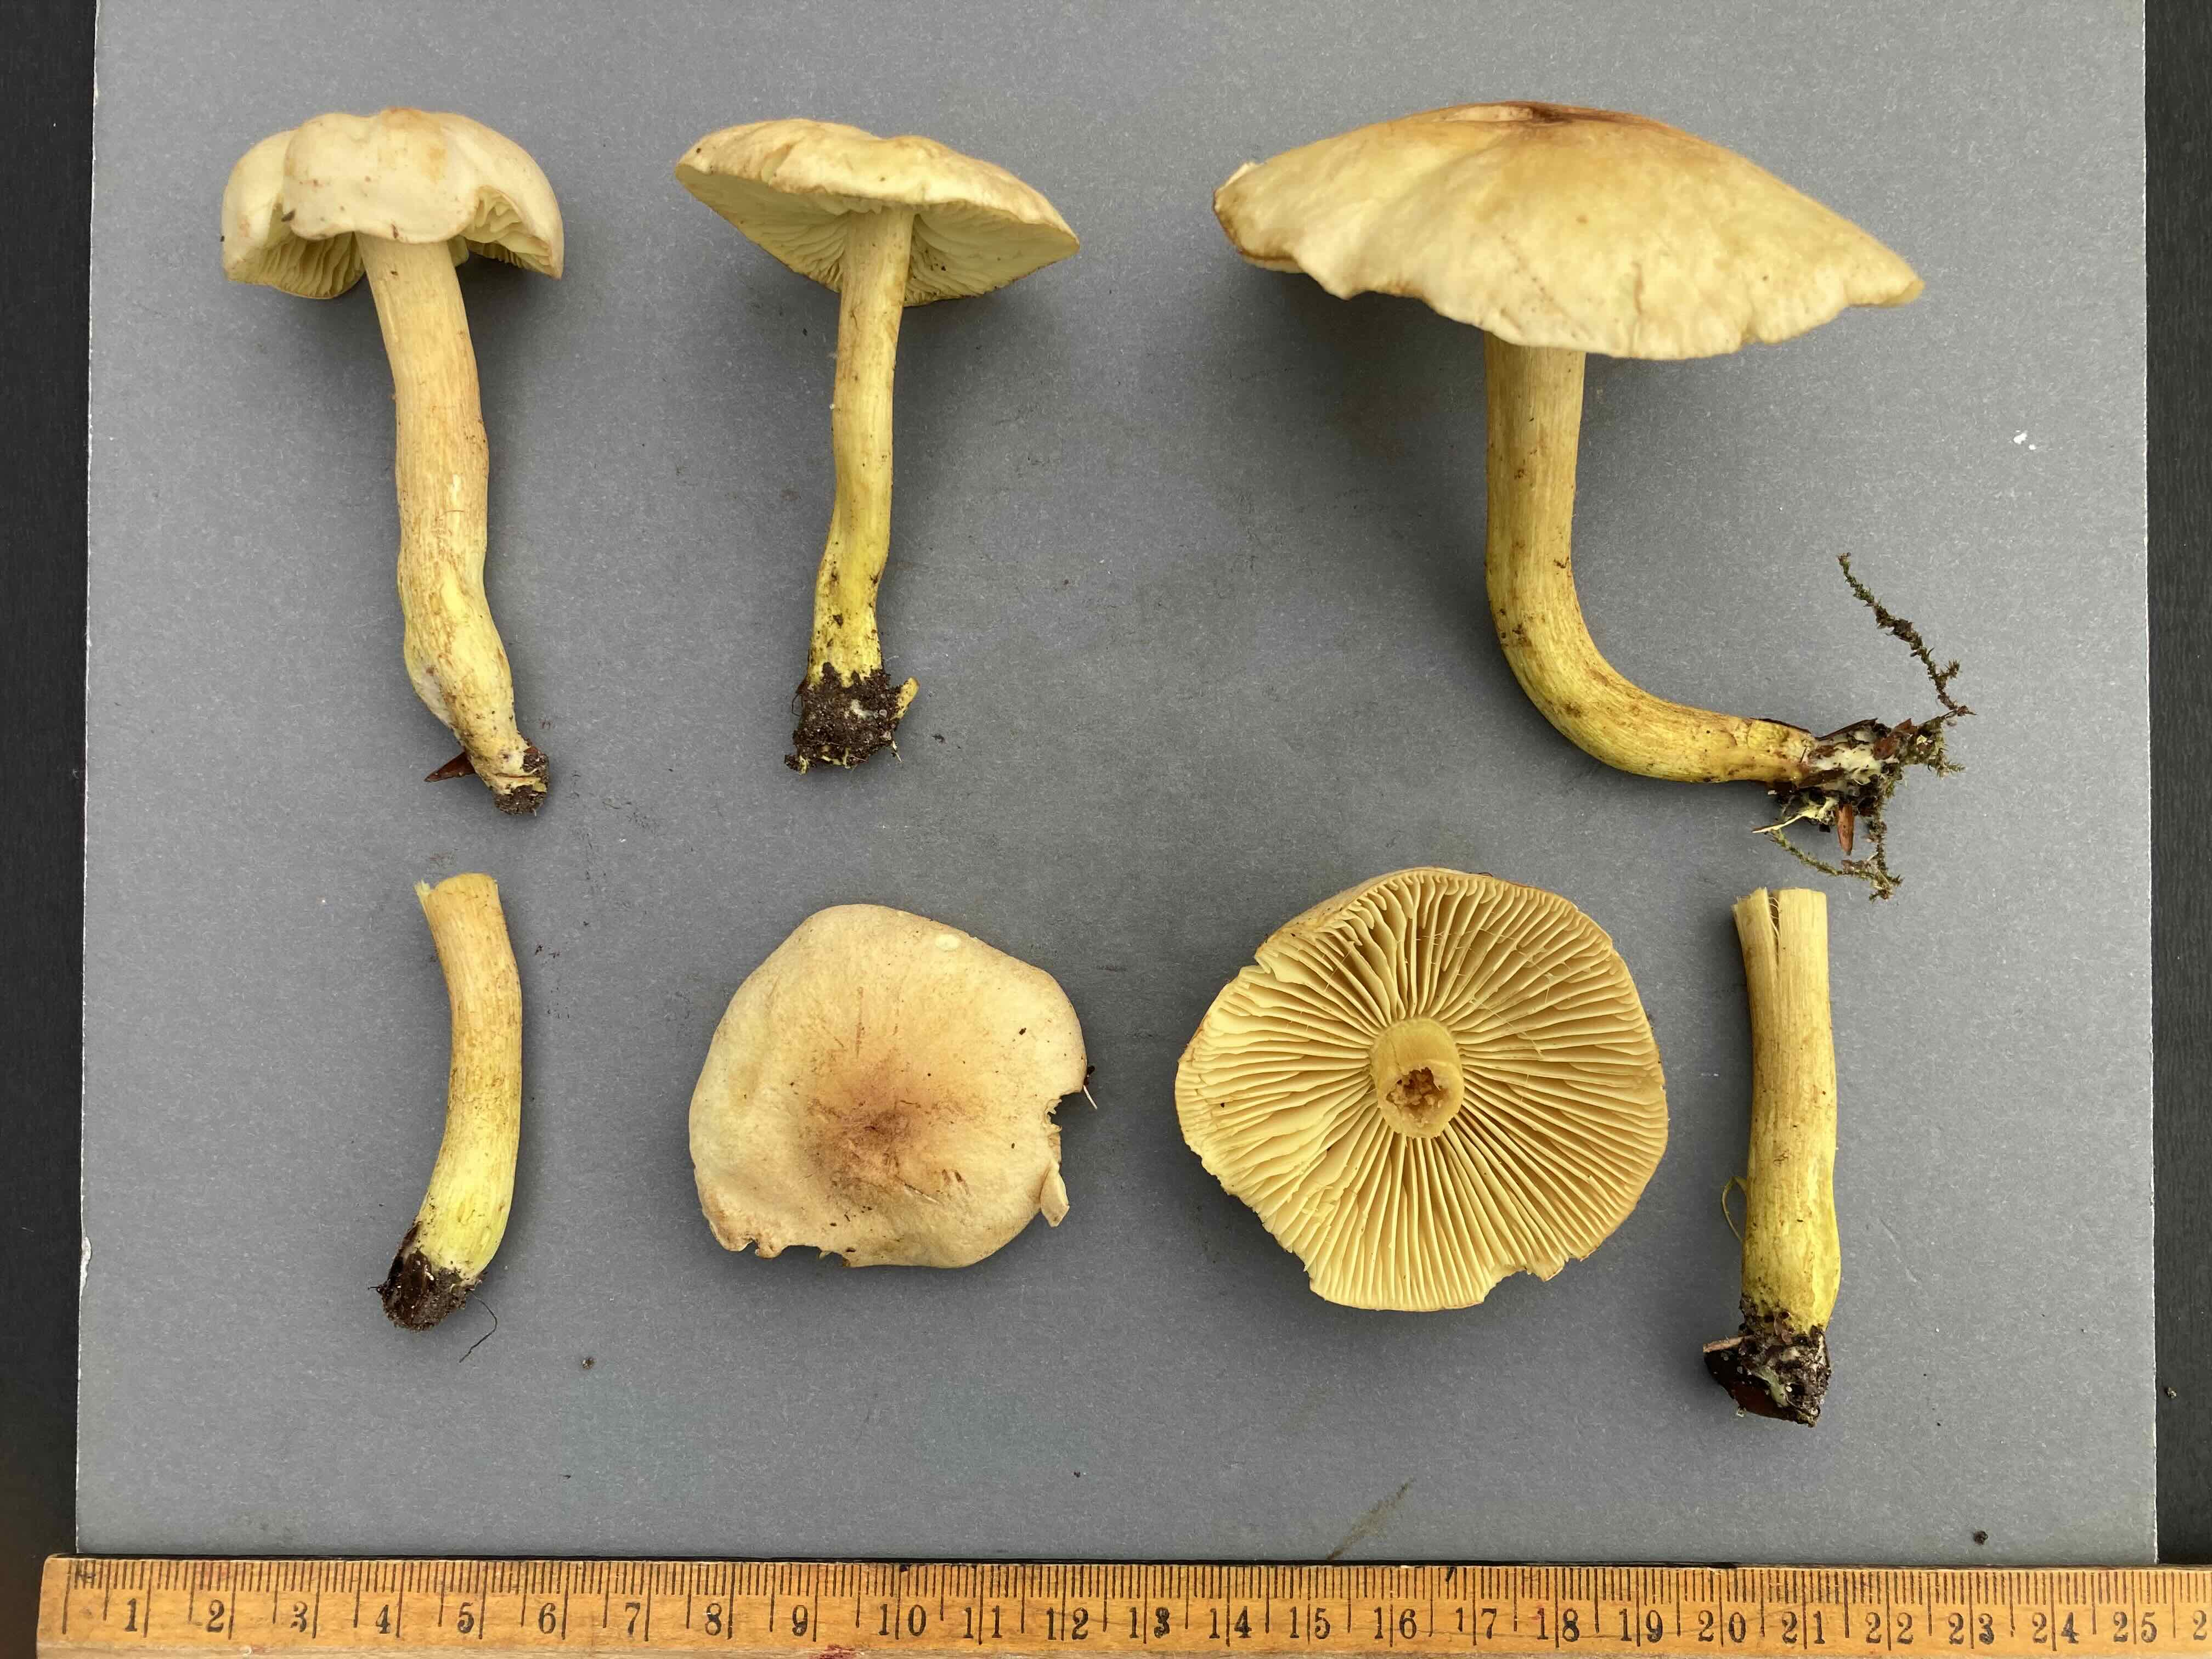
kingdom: Fungi
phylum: Basidiomycota
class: Agaricomycetes
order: Agaricales
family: Tricholomataceae
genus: Tricholoma
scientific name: Tricholoma sulphureum
